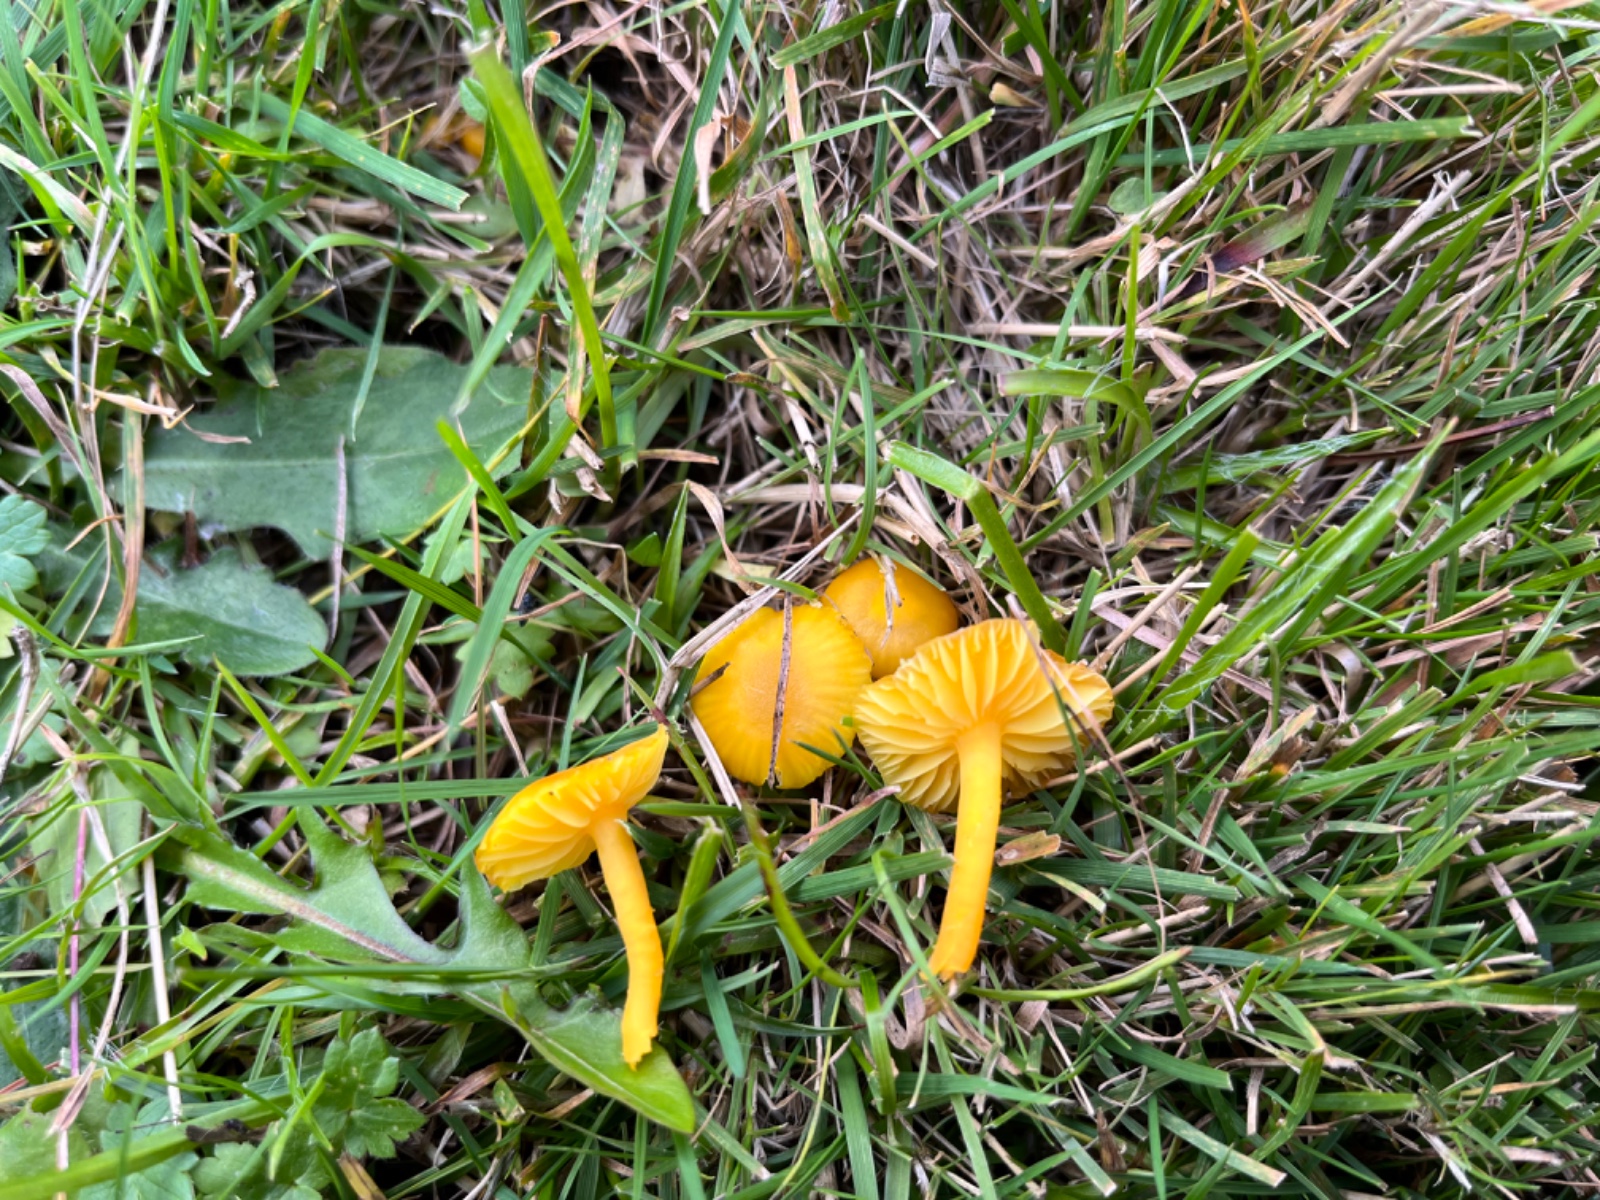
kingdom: Fungi
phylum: Basidiomycota
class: Agaricomycetes
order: Agaricales
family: Hygrophoraceae
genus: Hygrocybe
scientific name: Hygrocybe ceracea
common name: voksgul vokshat
